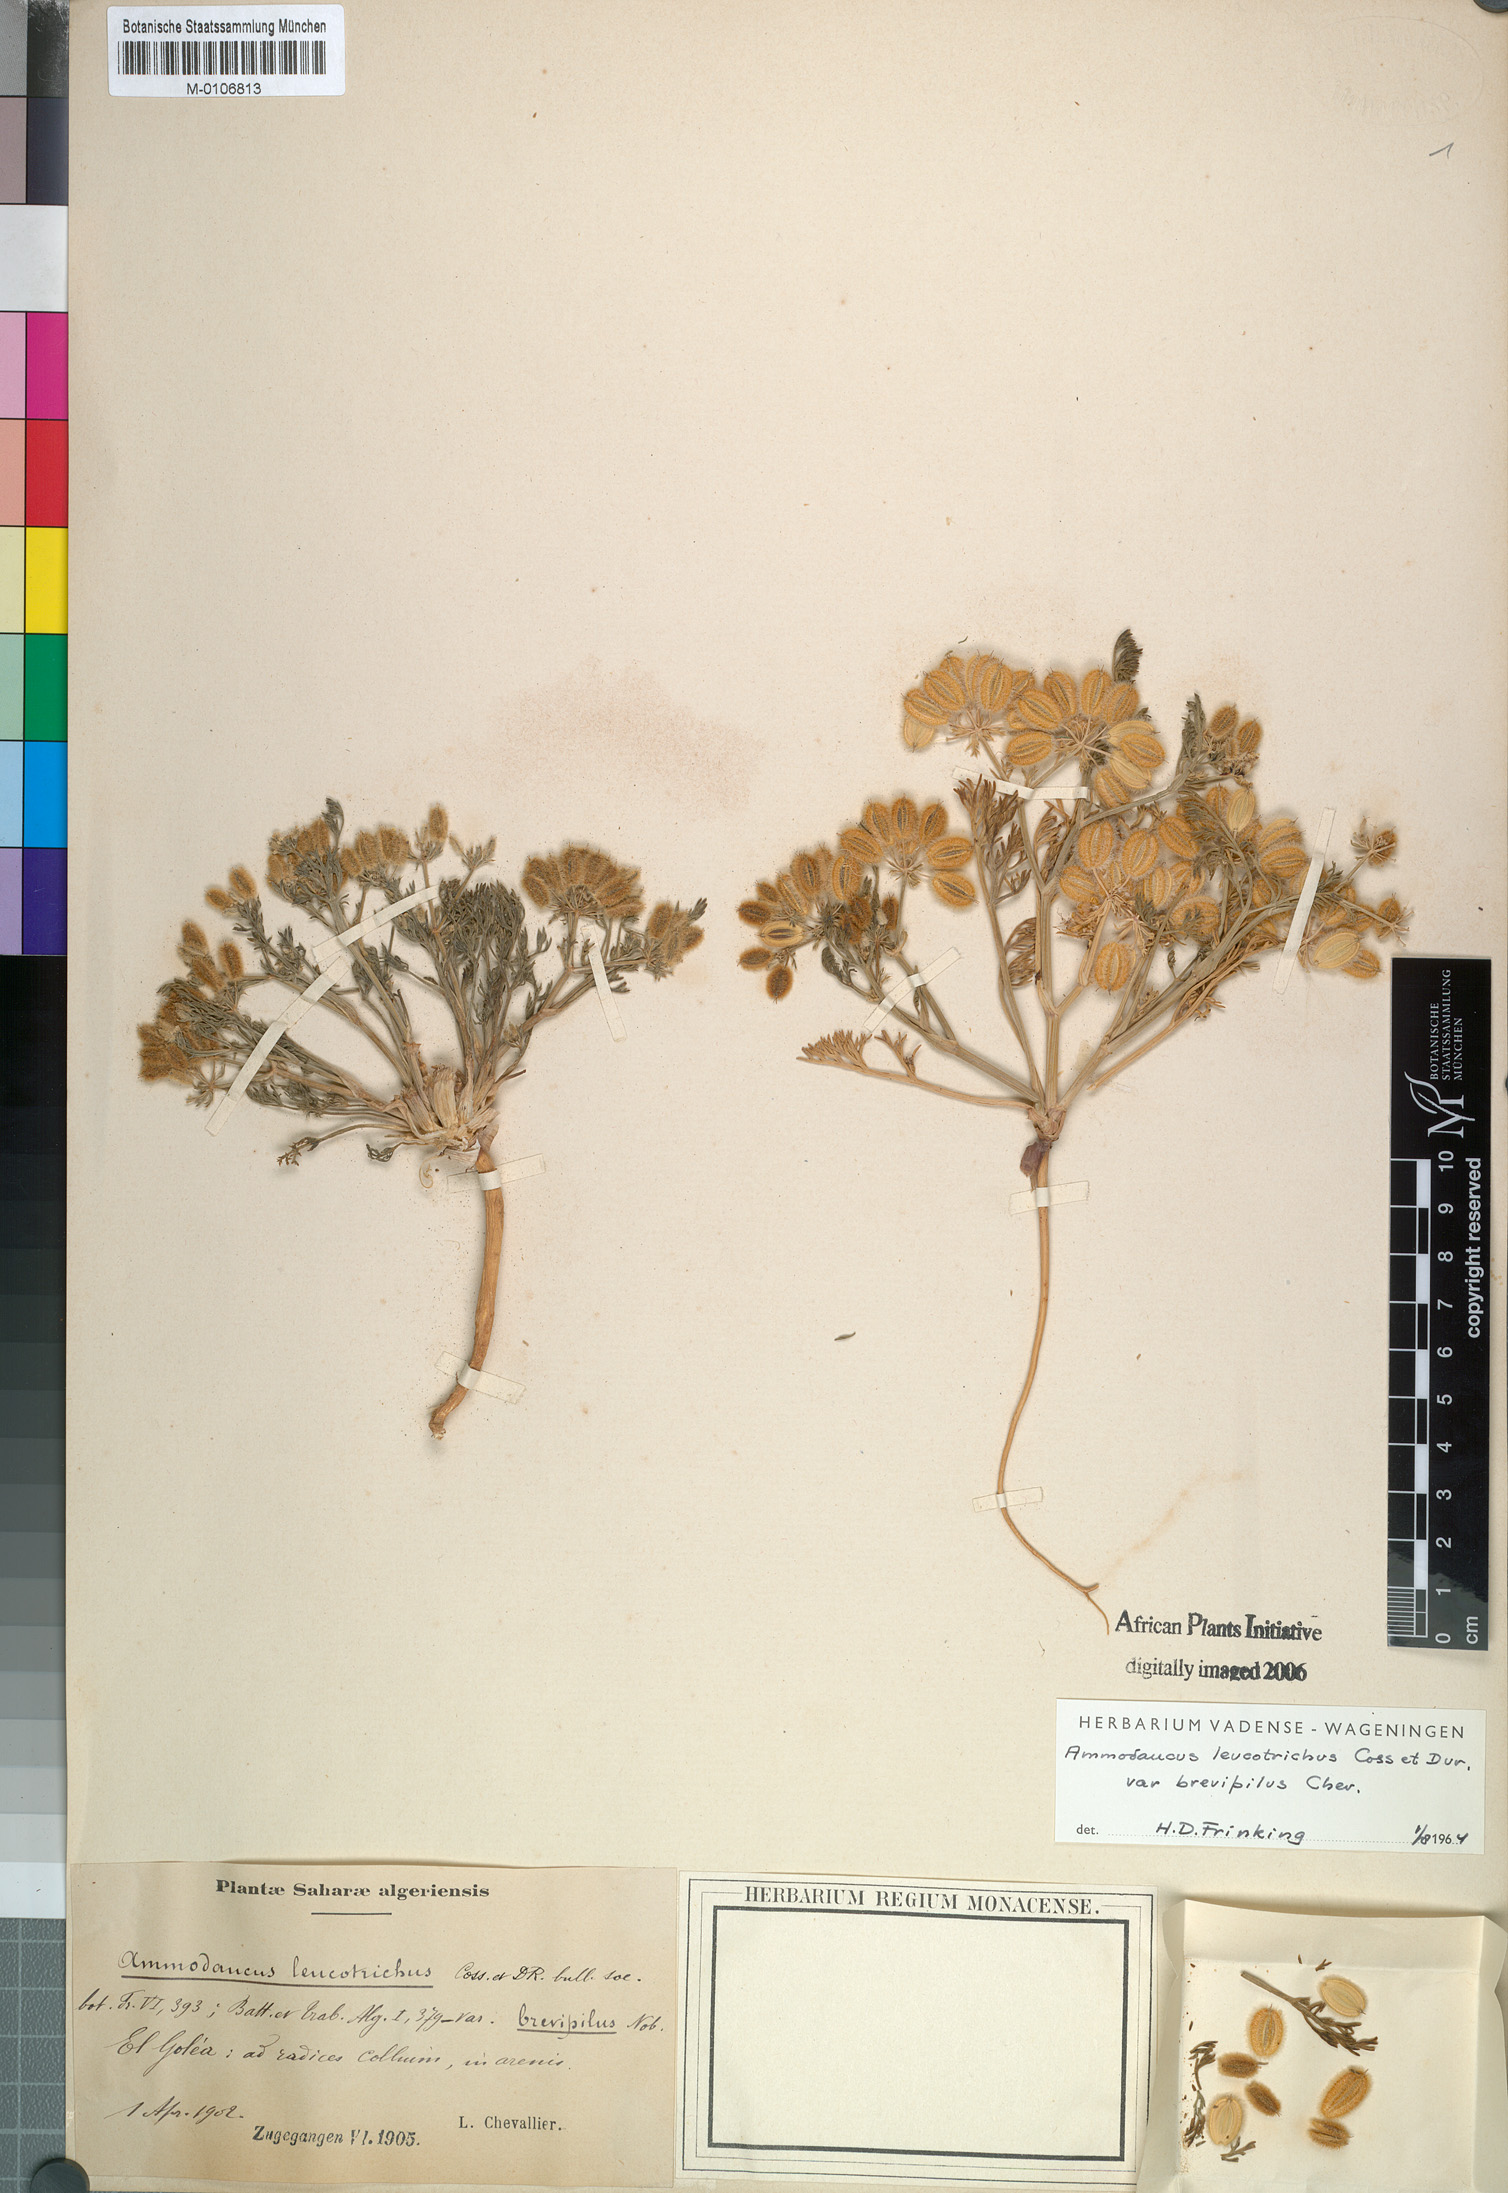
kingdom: Plantae
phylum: Tracheophyta
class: Magnoliopsida
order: Apiales
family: Apiaceae
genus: Ammodaucus
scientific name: Ammodaucus leucotrichus
